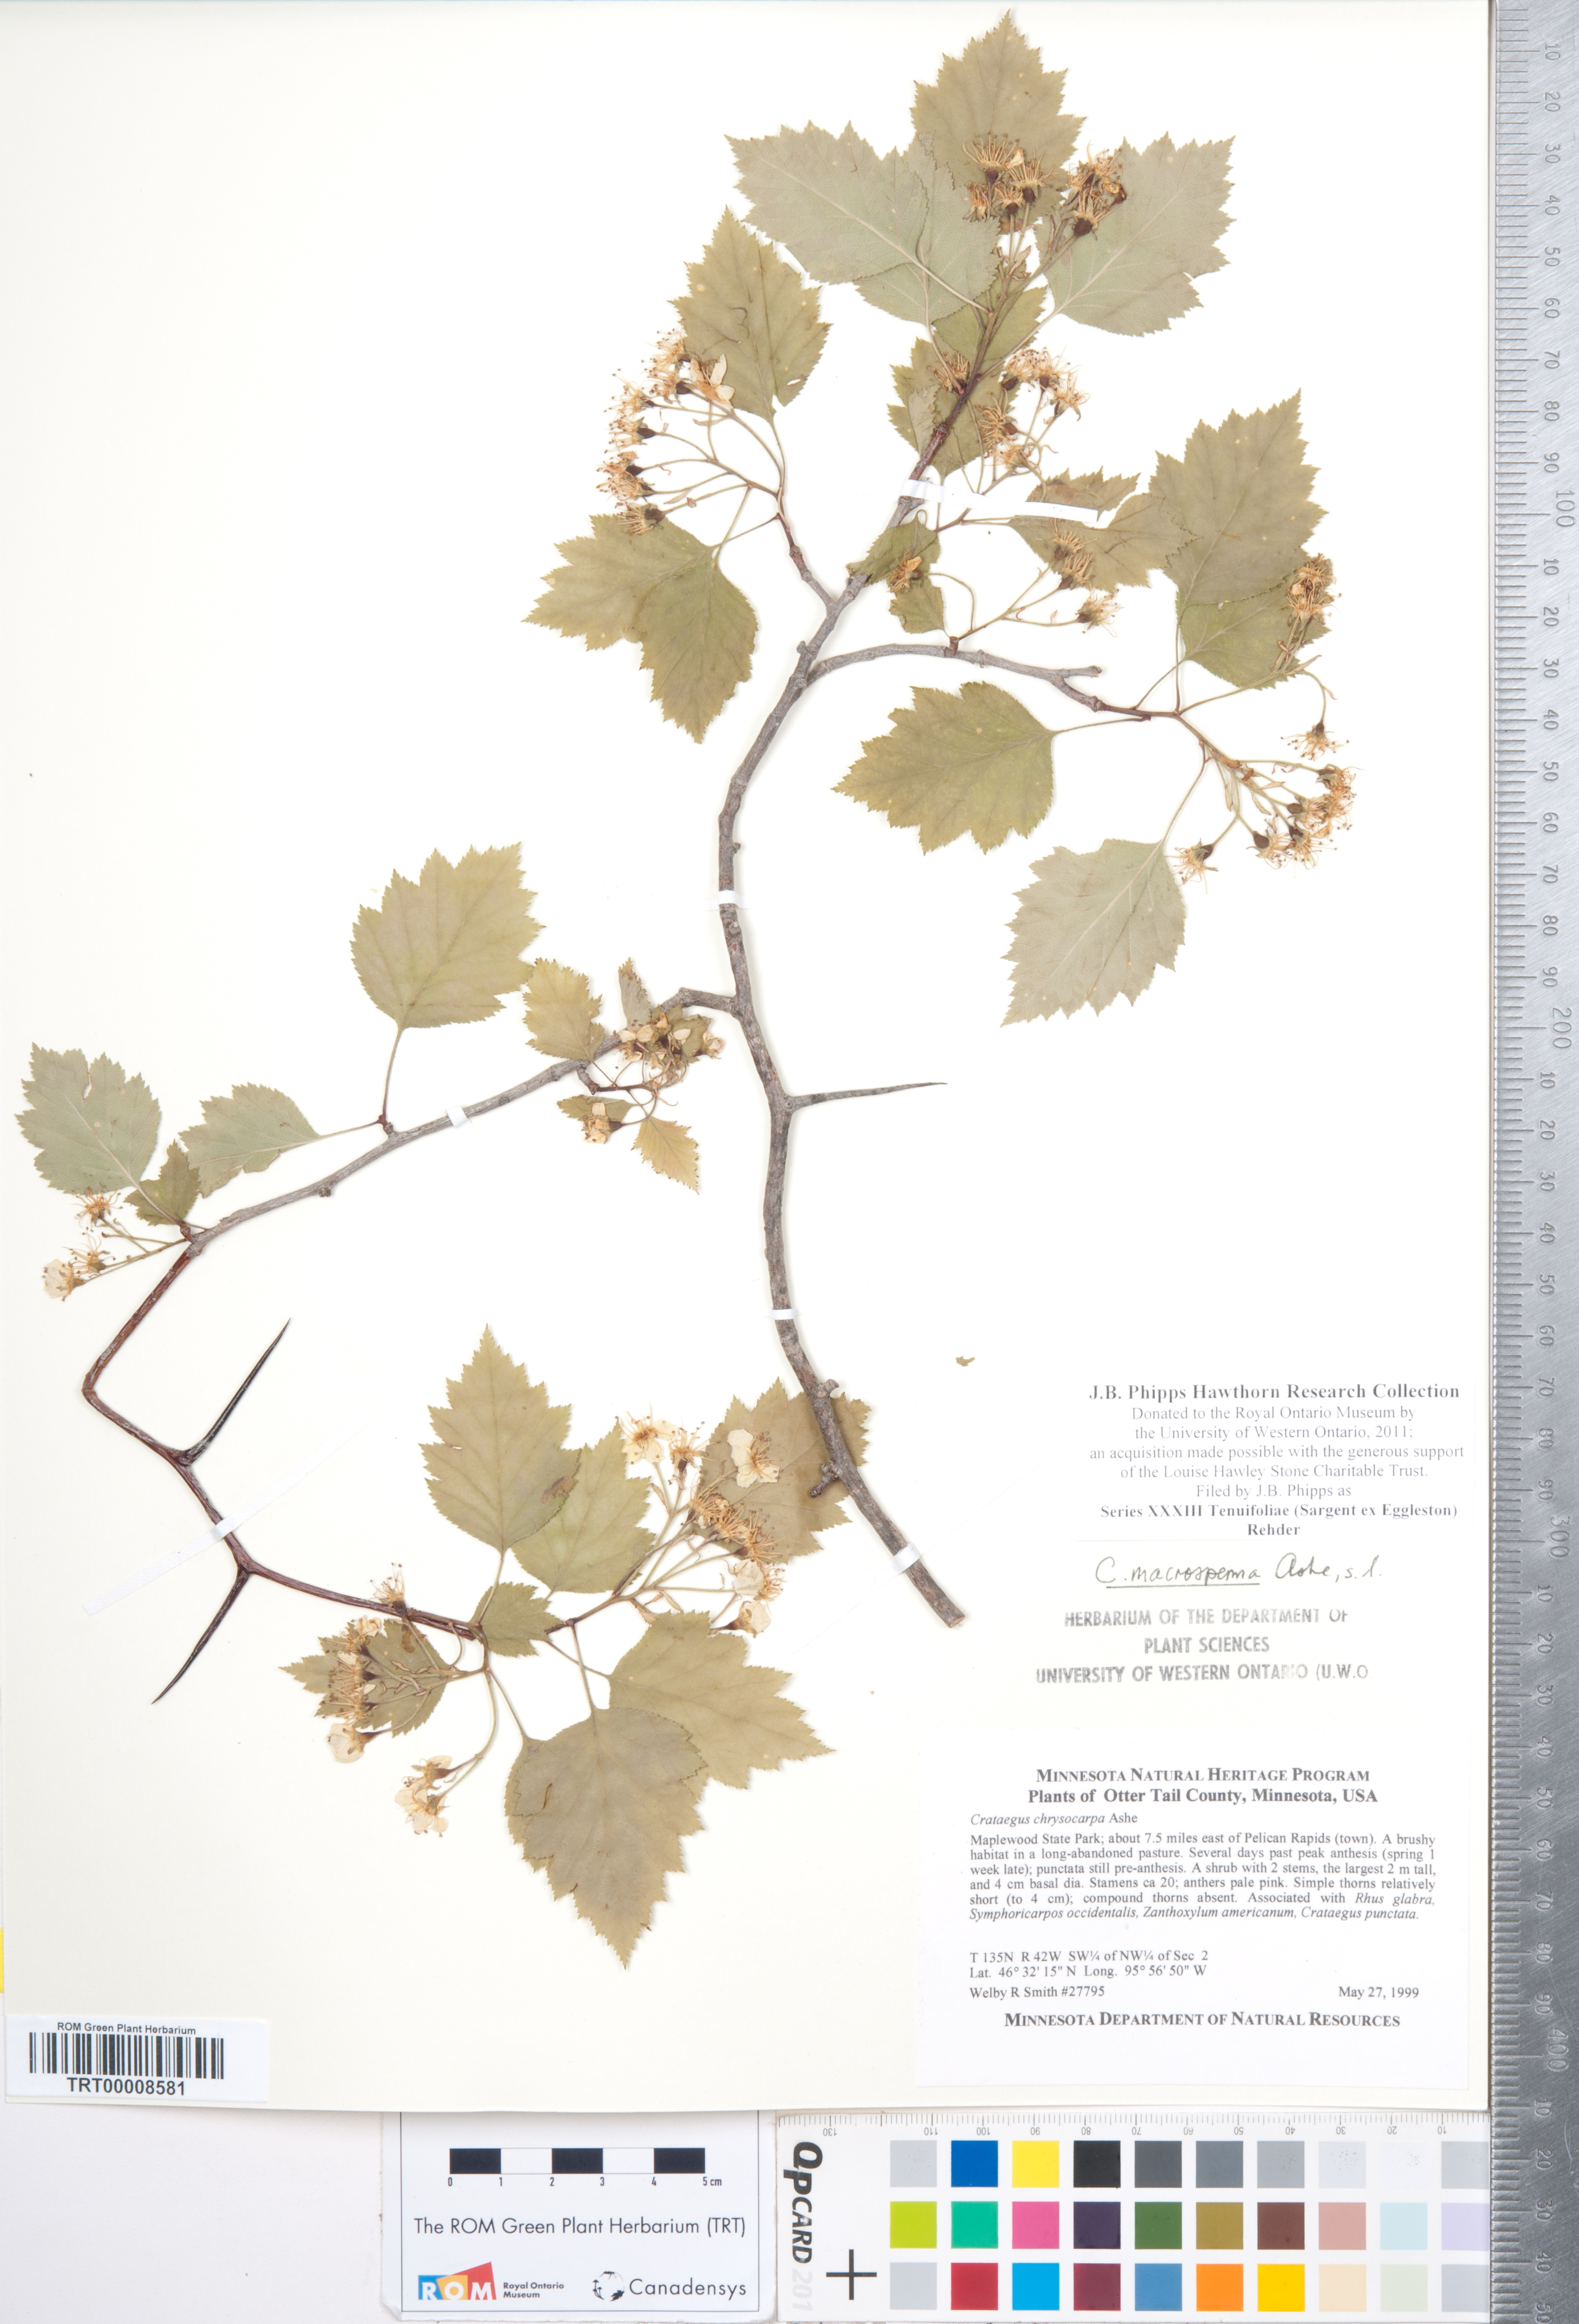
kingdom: Plantae
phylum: Tracheophyta
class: Magnoliopsida
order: Rosales
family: Rosaceae
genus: Crataegus
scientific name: Crataegus
